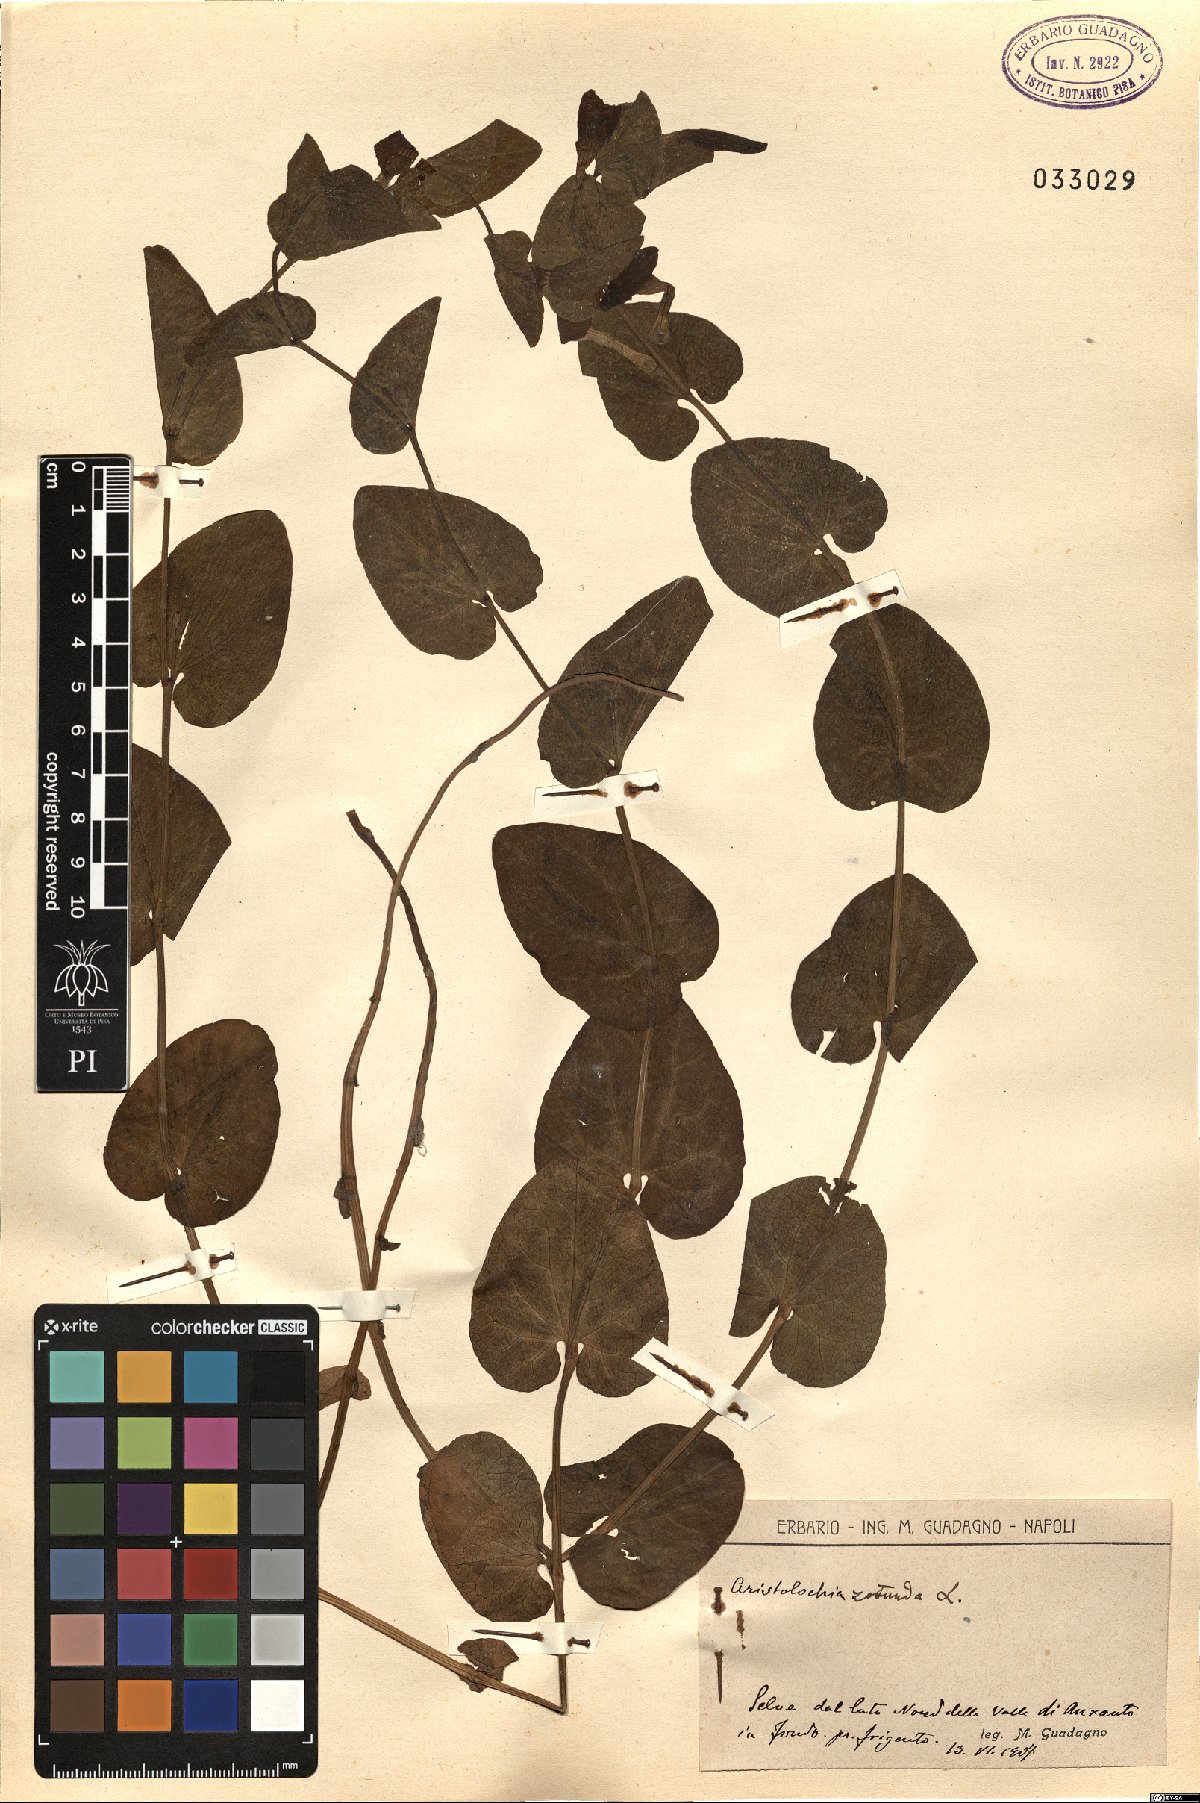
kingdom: Plantae
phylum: Tracheophyta
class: Magnoliopsida
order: Piperales
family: Aristolochiaceae
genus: Aristolochia
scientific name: Aristolochia rotunda
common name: Smearwort
